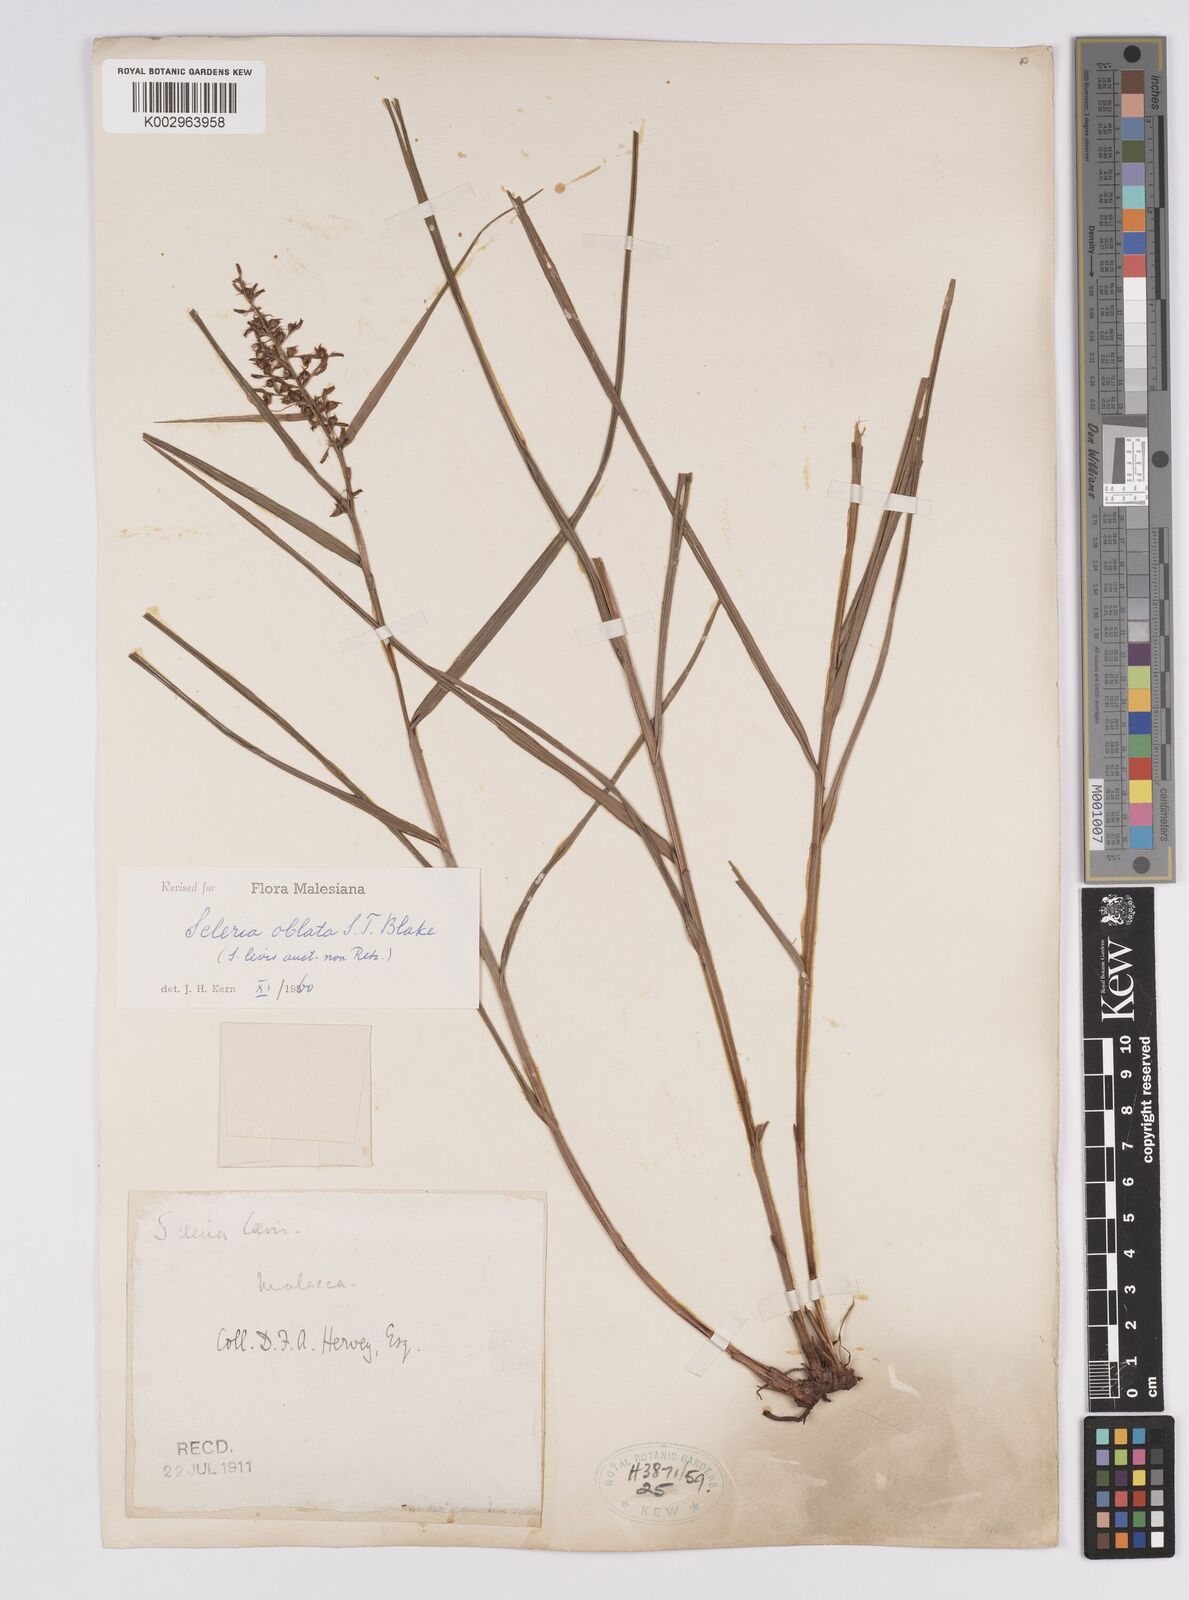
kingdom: Plantae
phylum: Tracheophyta
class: Liliopsida
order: Poales
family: Cyperaceae
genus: Scleria
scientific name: Scleria oblata
